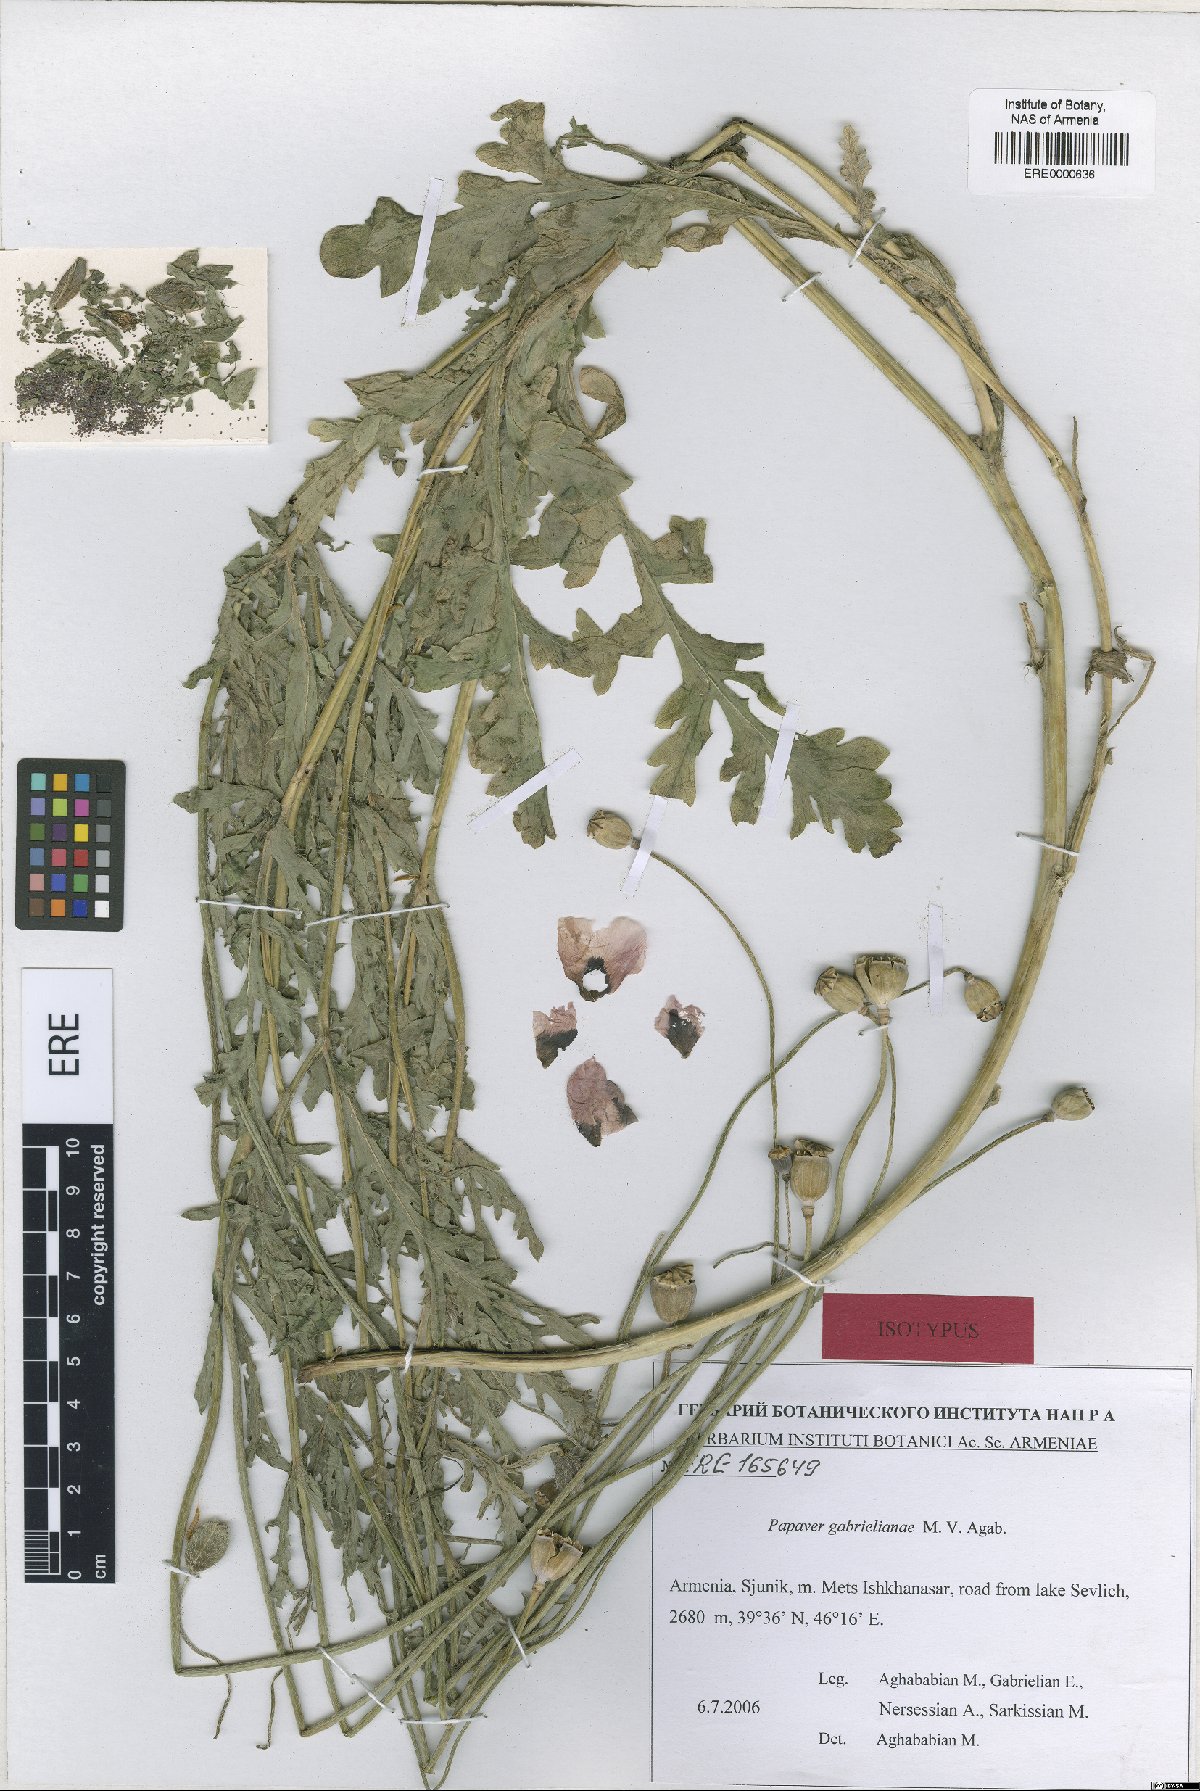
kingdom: Plantae
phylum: Tracheophyta
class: Magnoliopsida
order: Ranunculales
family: Papaveraceae
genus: Papaver
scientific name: Papaver rhoeas
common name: Corn poppy
